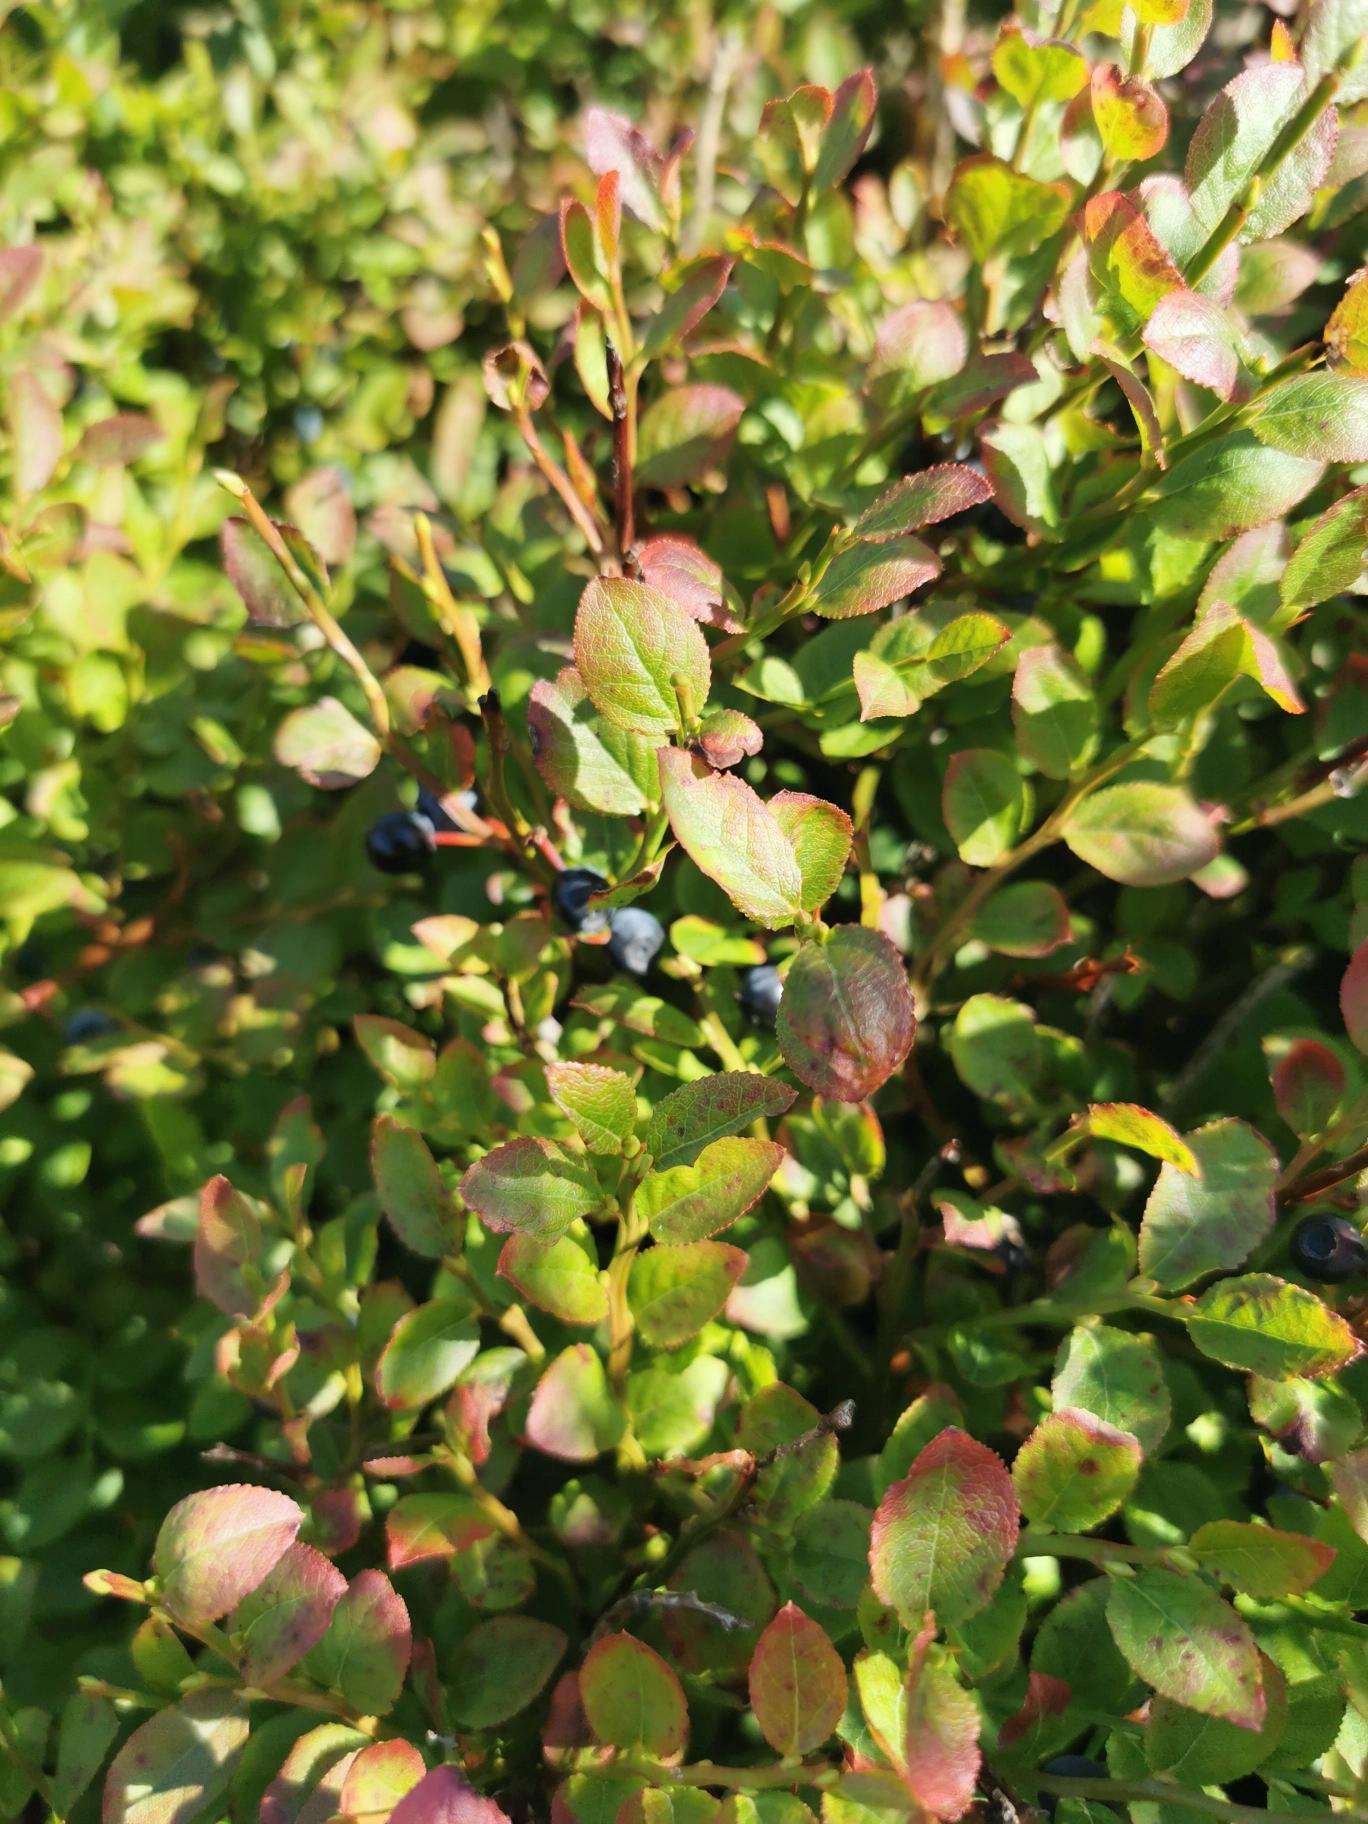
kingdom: Plantae
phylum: Tracheophyta
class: Magnoliopsida
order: Ericales
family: Ericaceae
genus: Vaccinium
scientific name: Vaccinium myrtillus
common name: Blåbær
